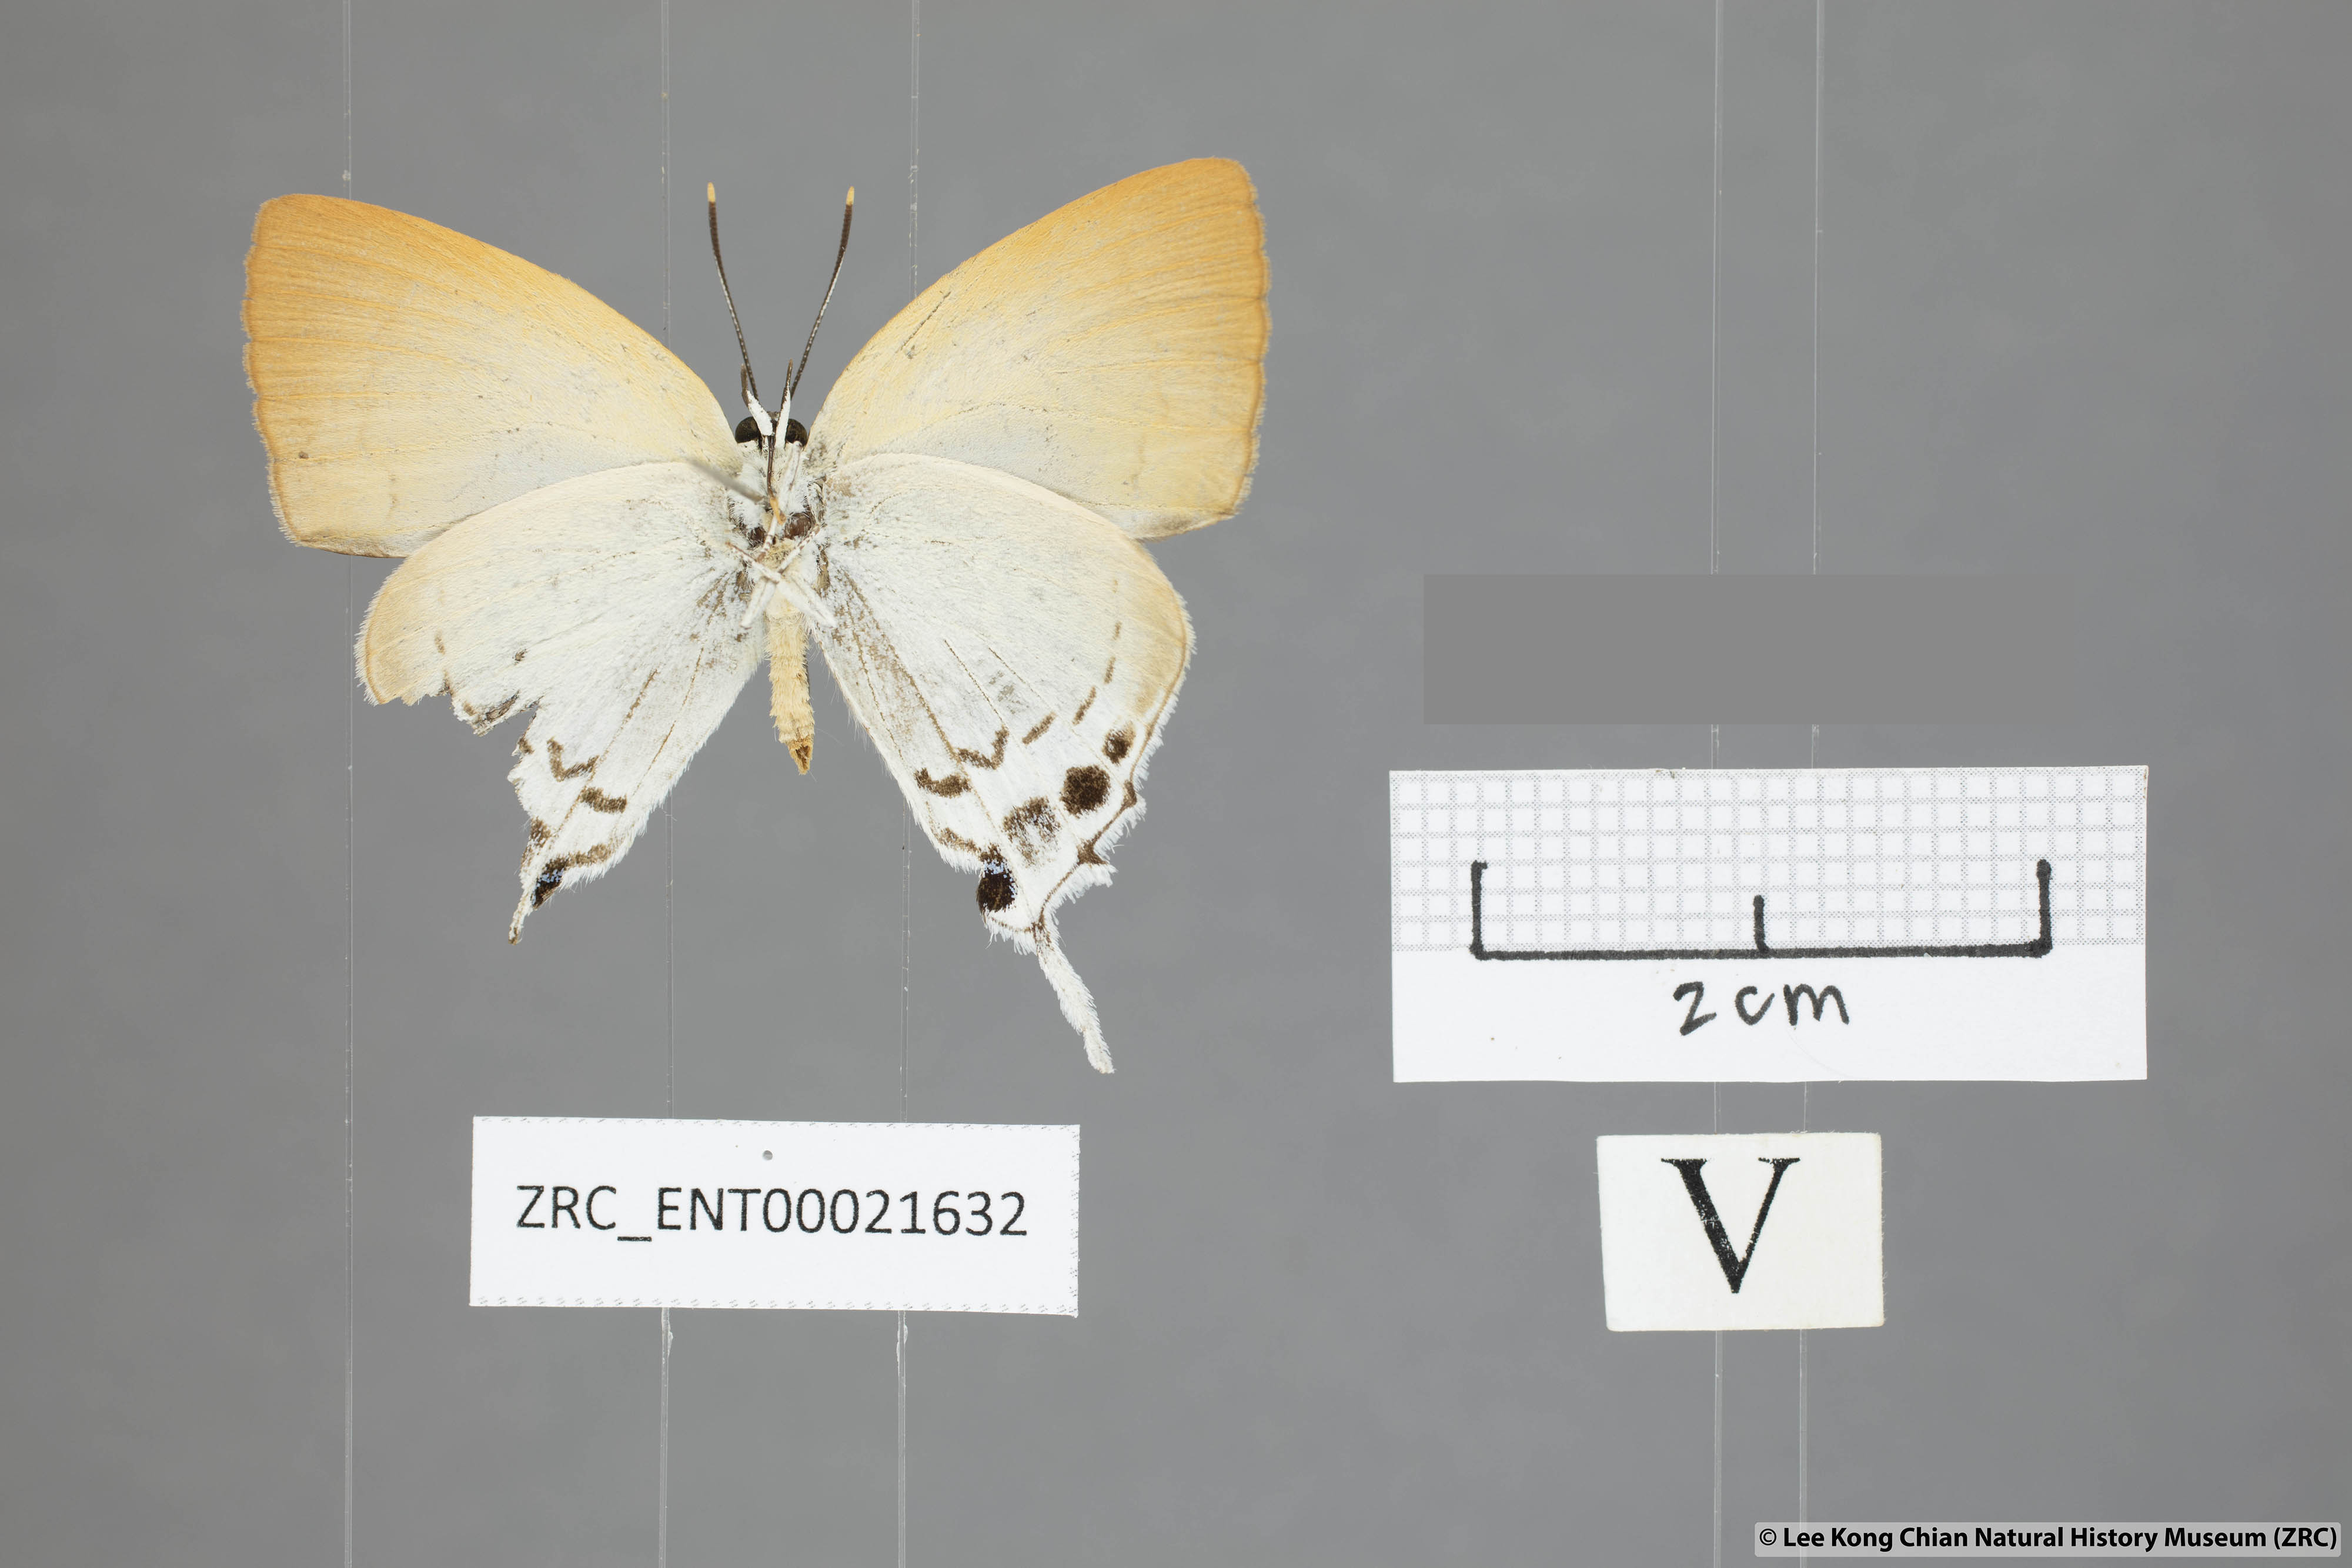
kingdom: Animalia
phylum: Arthropoda
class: Insecta
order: Lepidoptera
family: Lycaenidae
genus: Mantoides
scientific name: Mantoides gama
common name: Distant's imperial
